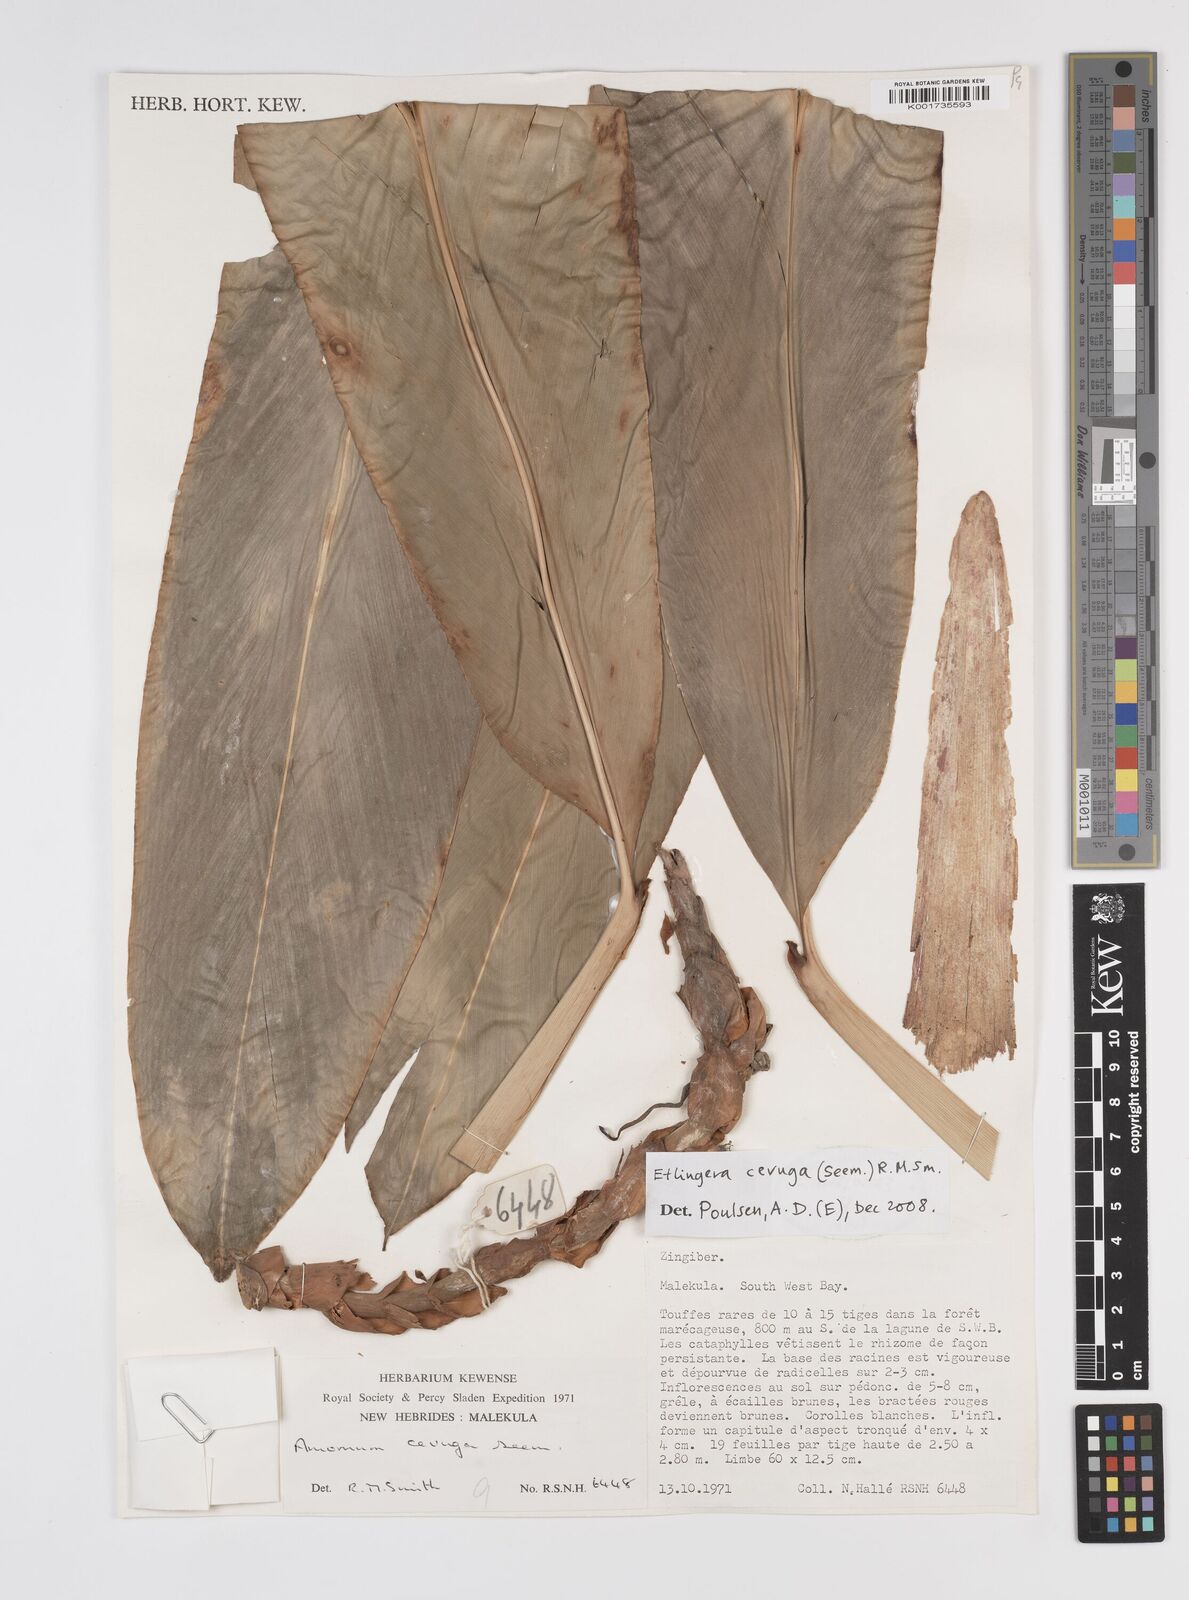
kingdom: Plantae
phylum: Tracheophyta
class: Liliopsida
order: Zingiberales
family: Zingiberaceae
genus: Etlingera
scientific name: Etlingera cevuga
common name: Waxflower
